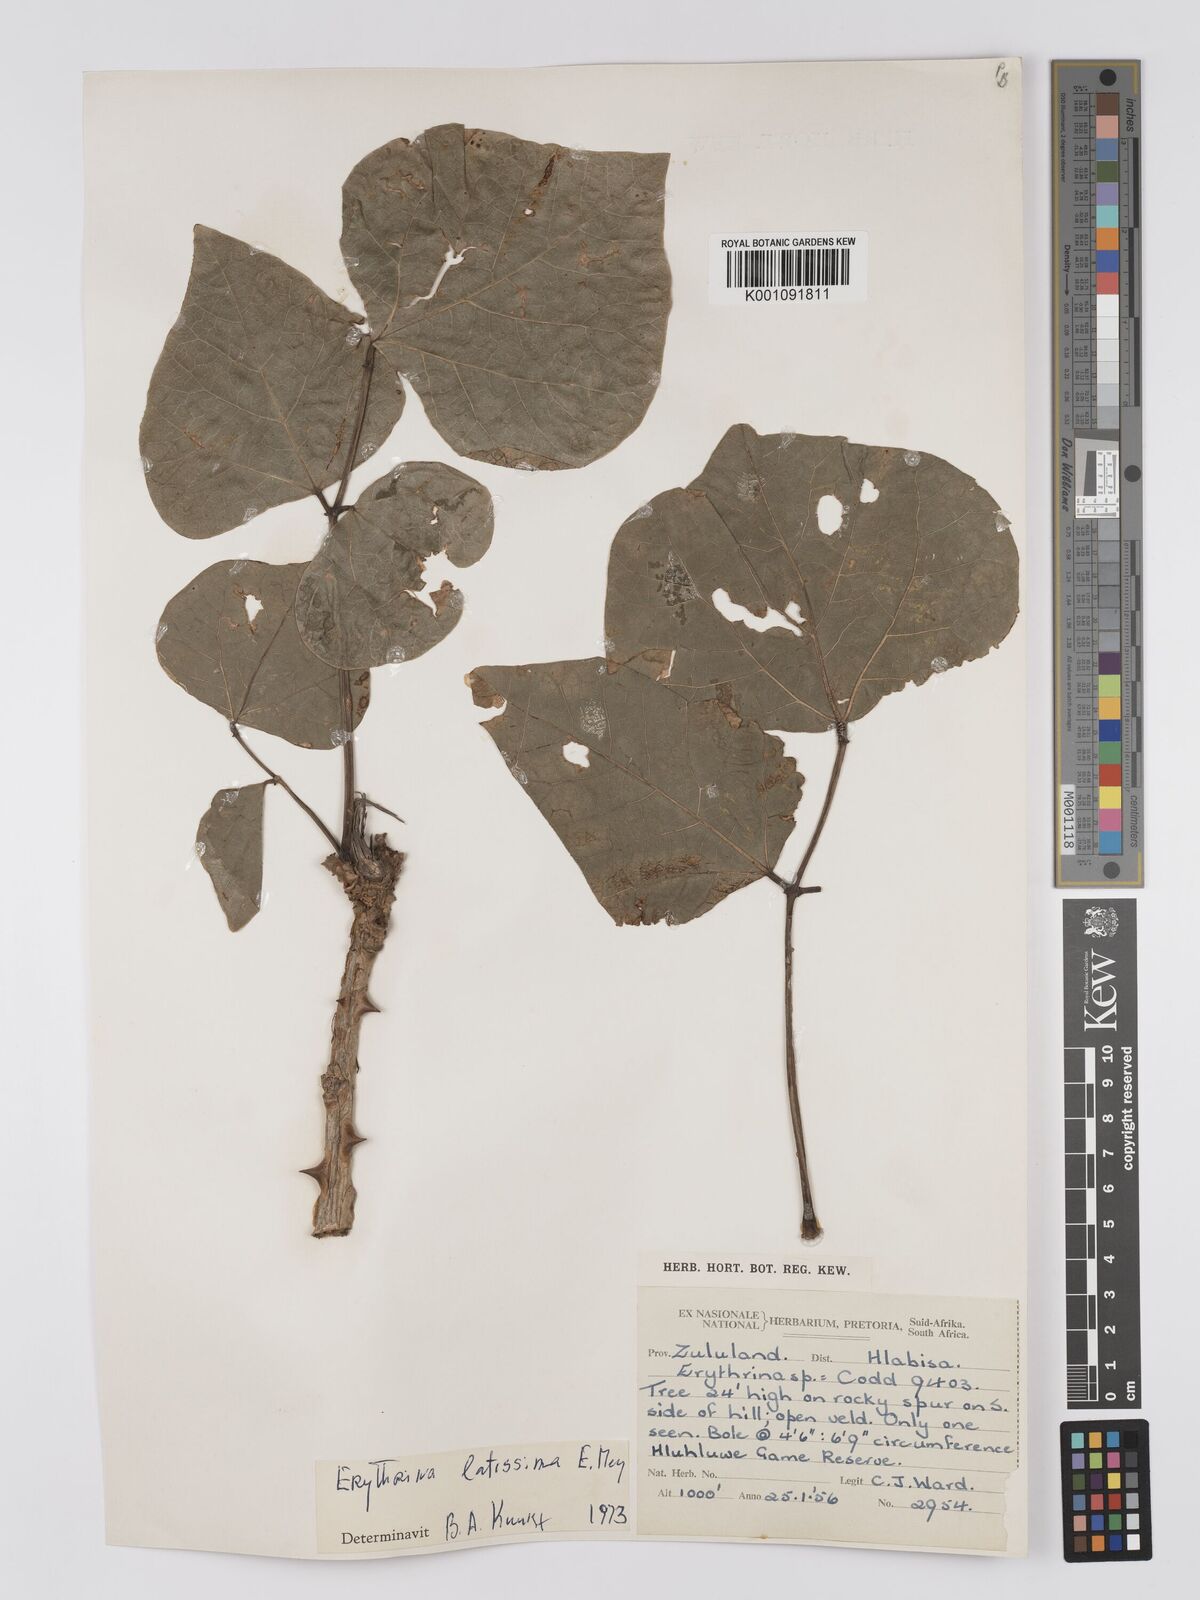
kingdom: Plantae
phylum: Tracheophyta
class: Magnoliopsida
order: Fabales
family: Fabaceae
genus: Erythrina
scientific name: Erythrina latissima
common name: Broad-leaved coral tree
